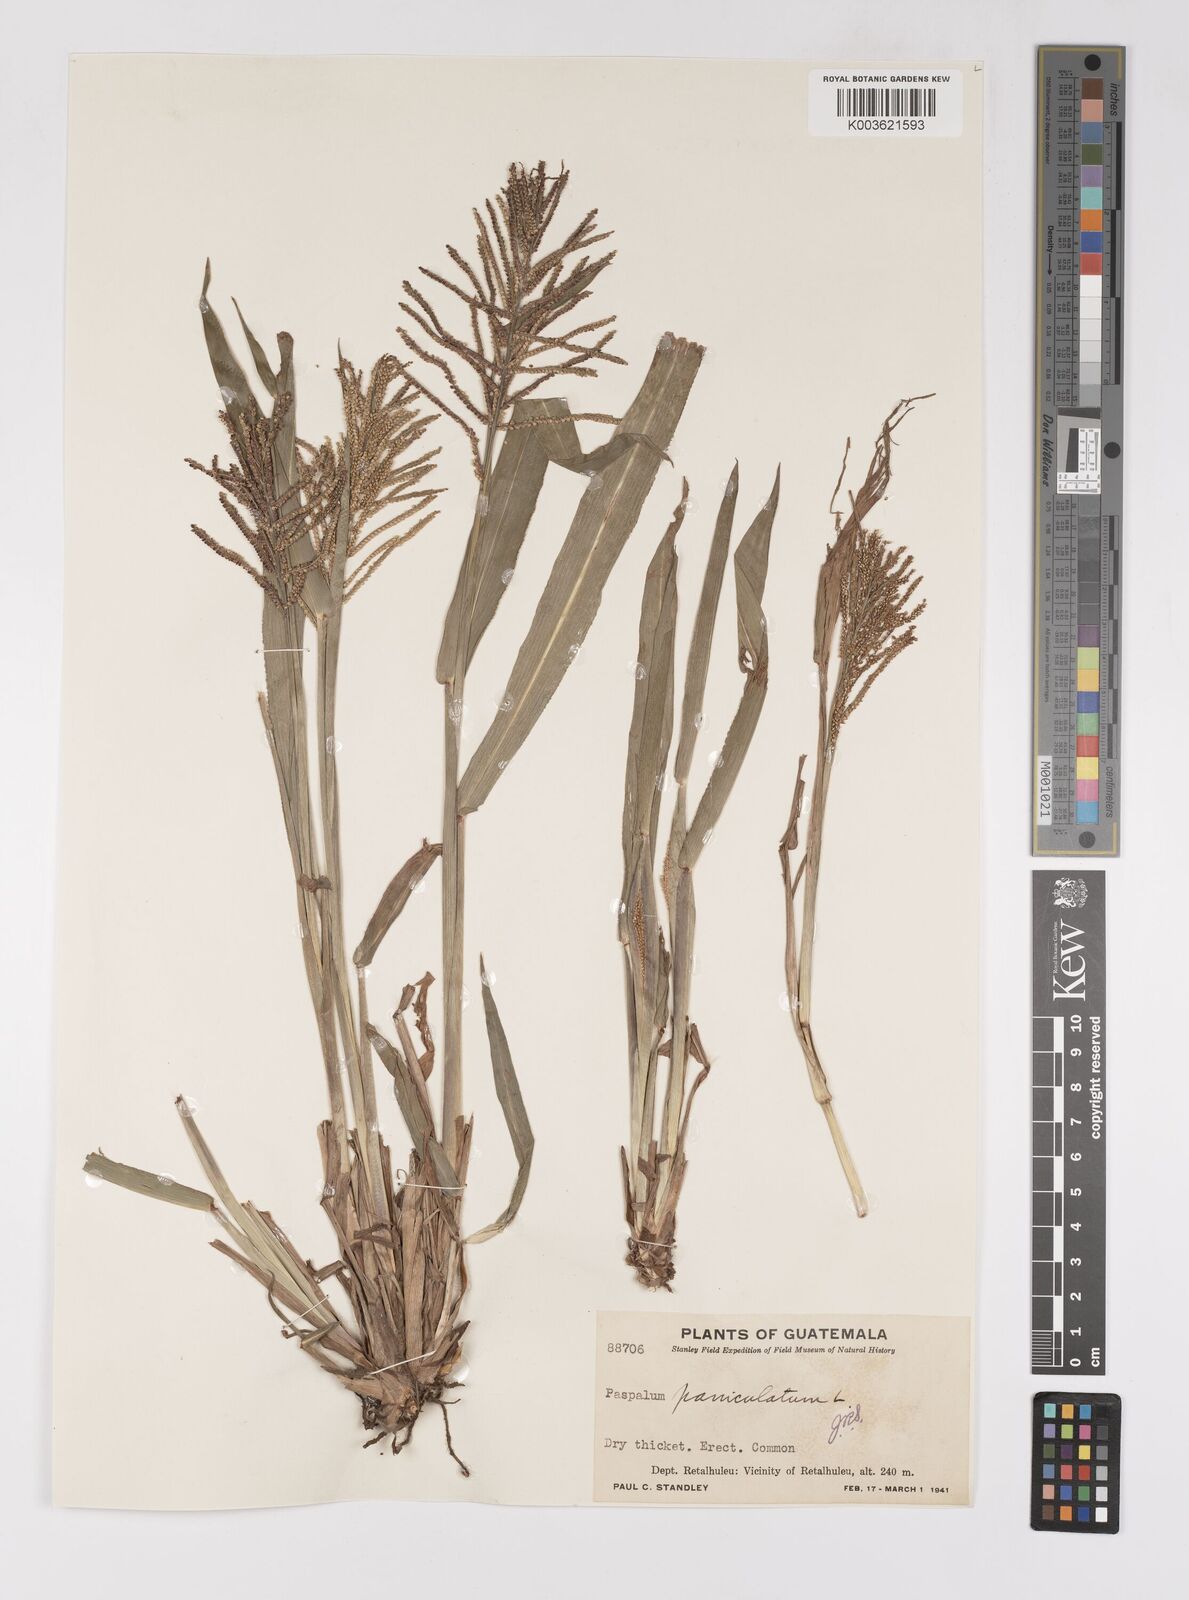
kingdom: Plantae
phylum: Tracheophyta
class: Liliopsida
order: Poales
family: Poaceae
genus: Paspalum
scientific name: Paspalum paniculatum
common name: Arrocillo
